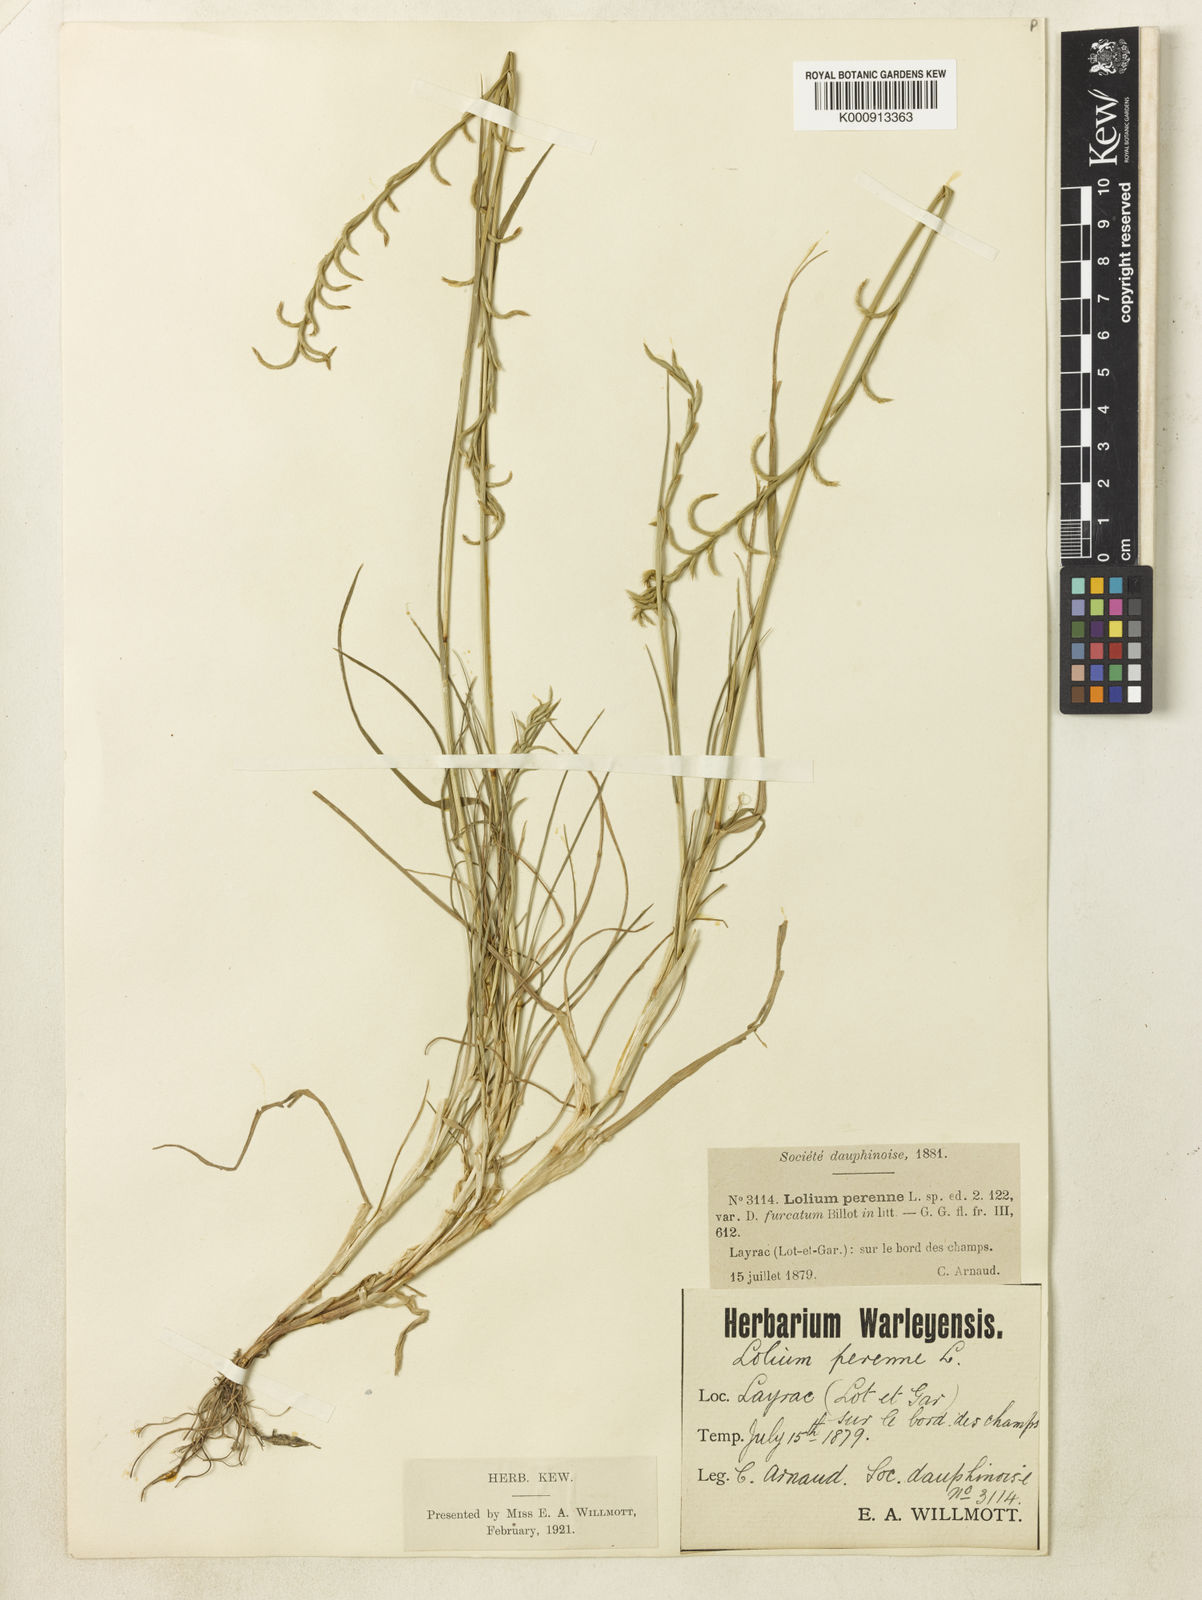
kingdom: Plantae
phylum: Tracheophyta
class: Liliopsida
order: Poales
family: Poaceae
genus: Lolium
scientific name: Lolium perenne
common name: Perennial ryegrass
